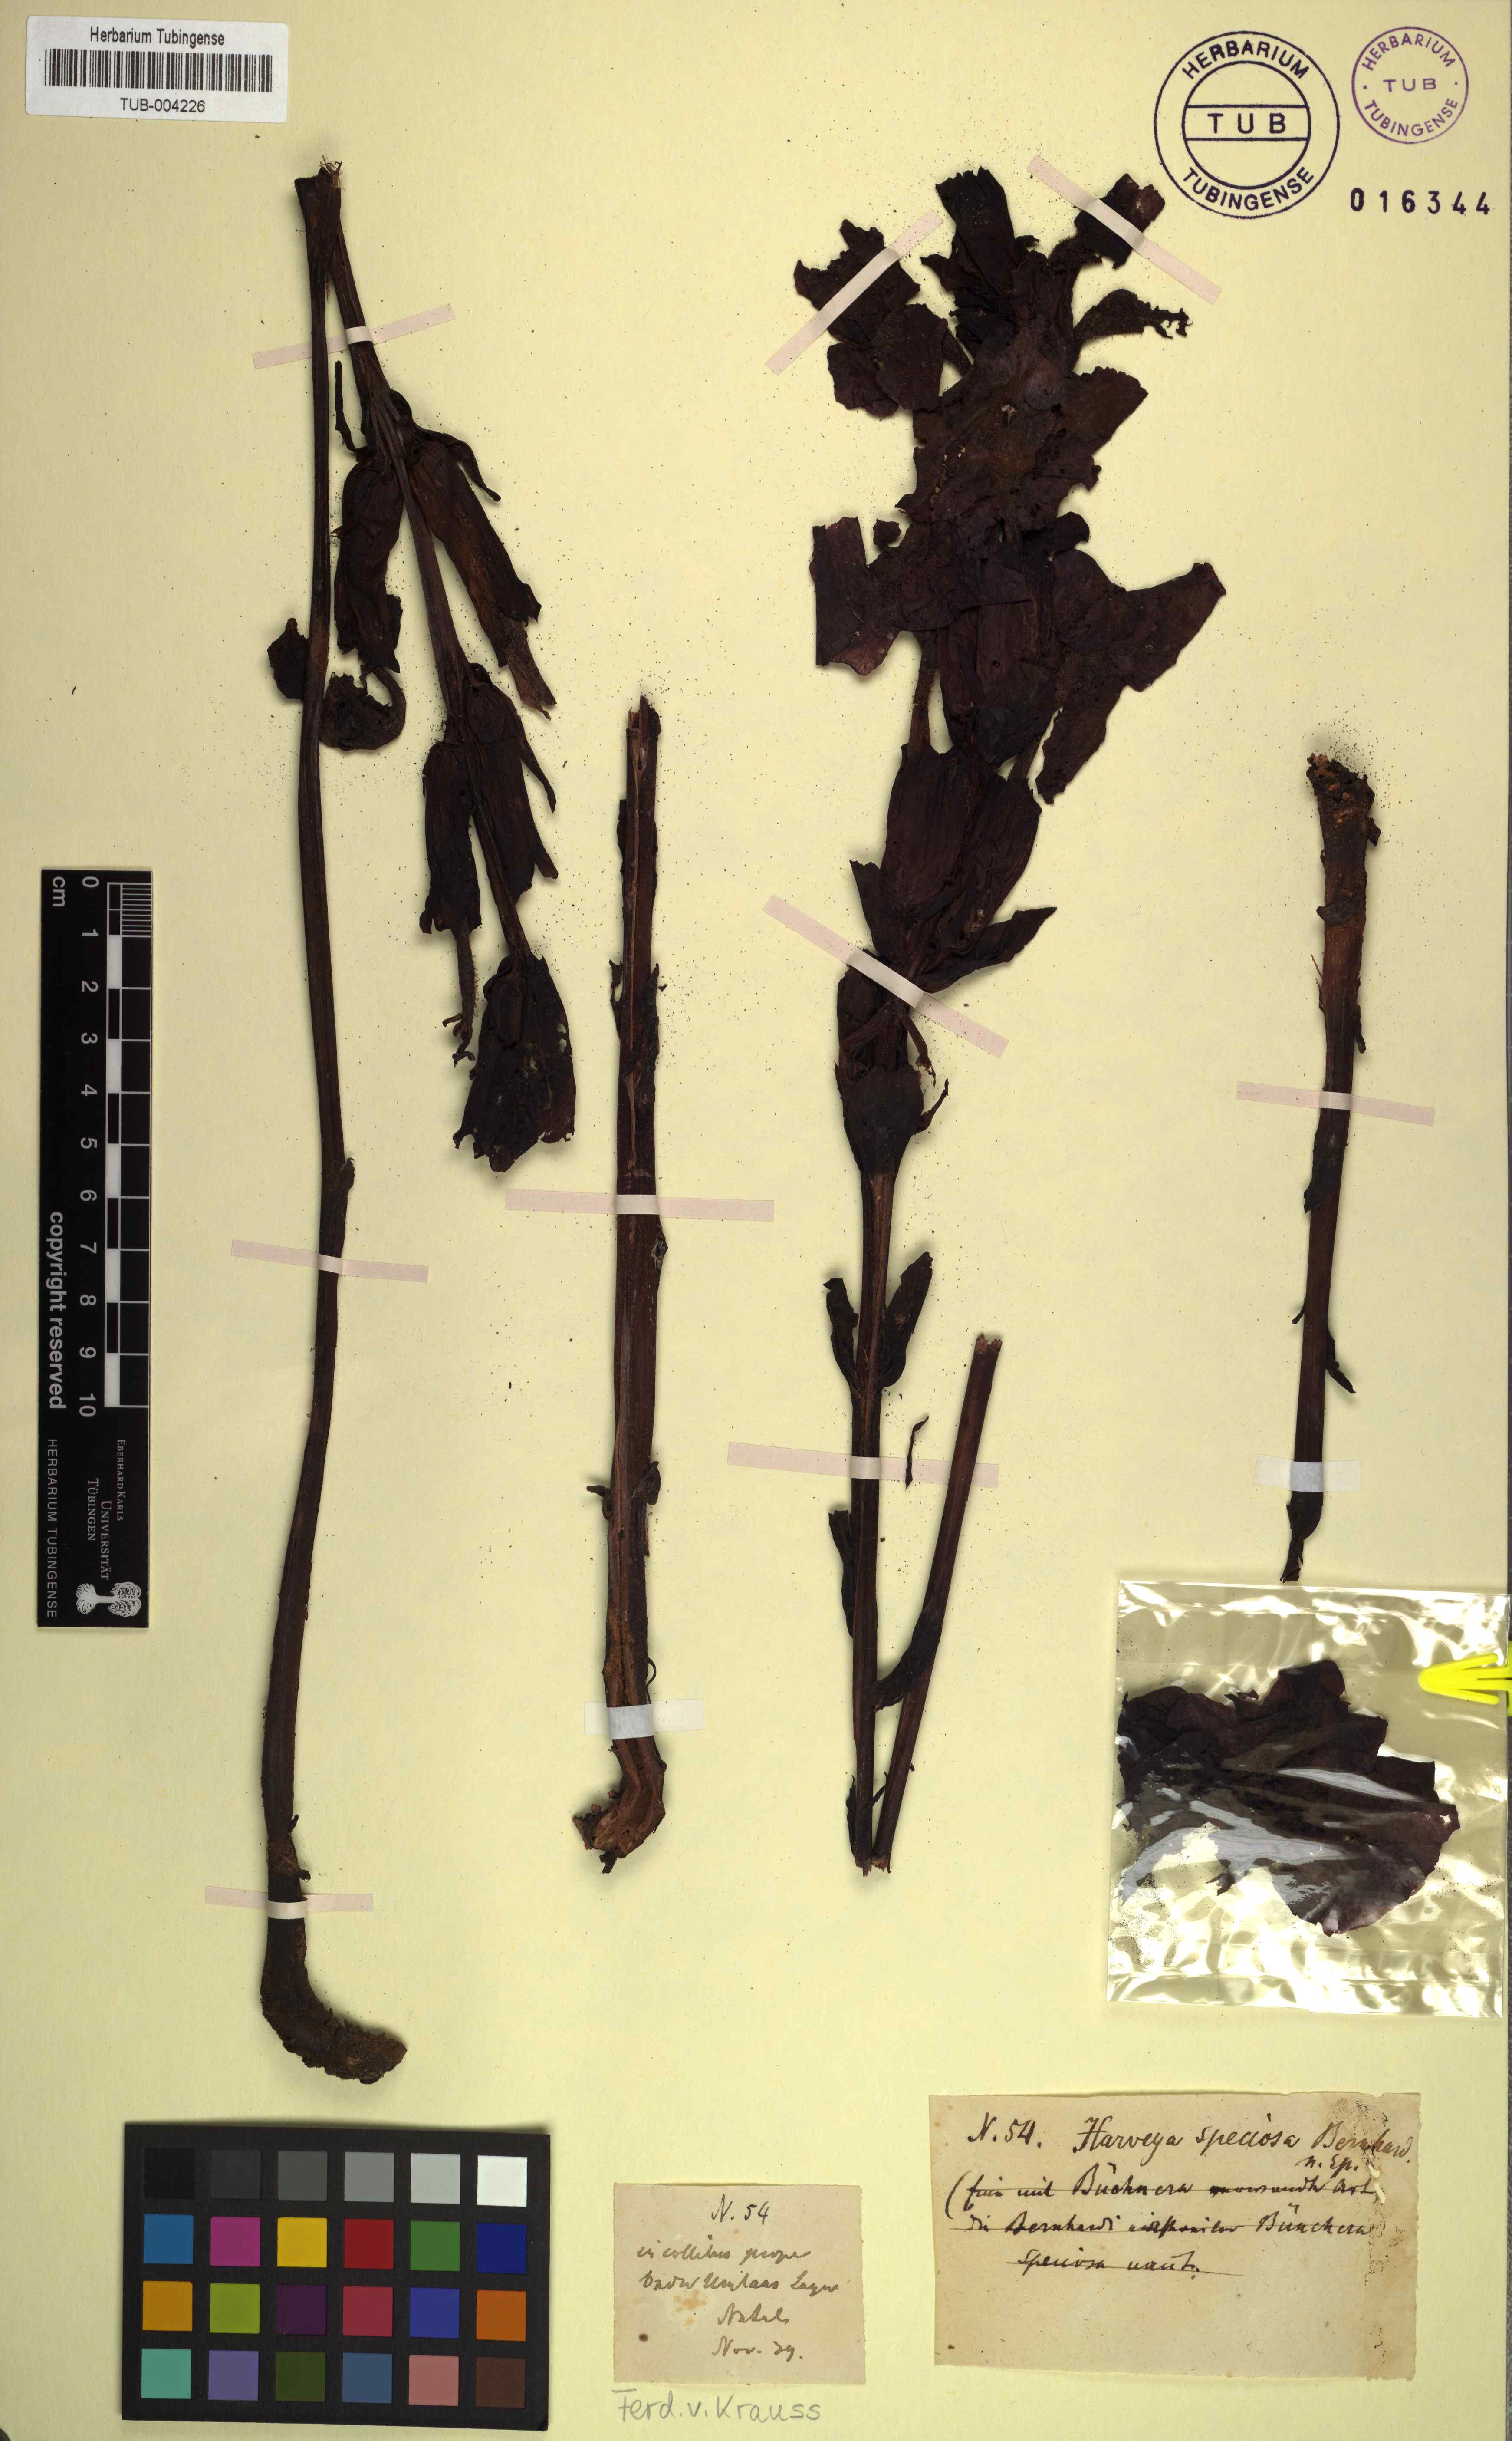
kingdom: Plantae
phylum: Tracheophyta
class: Magnoliopsida
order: Lamiales
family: Orobanchaceae
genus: Harveya
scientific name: Harveya speciosa
